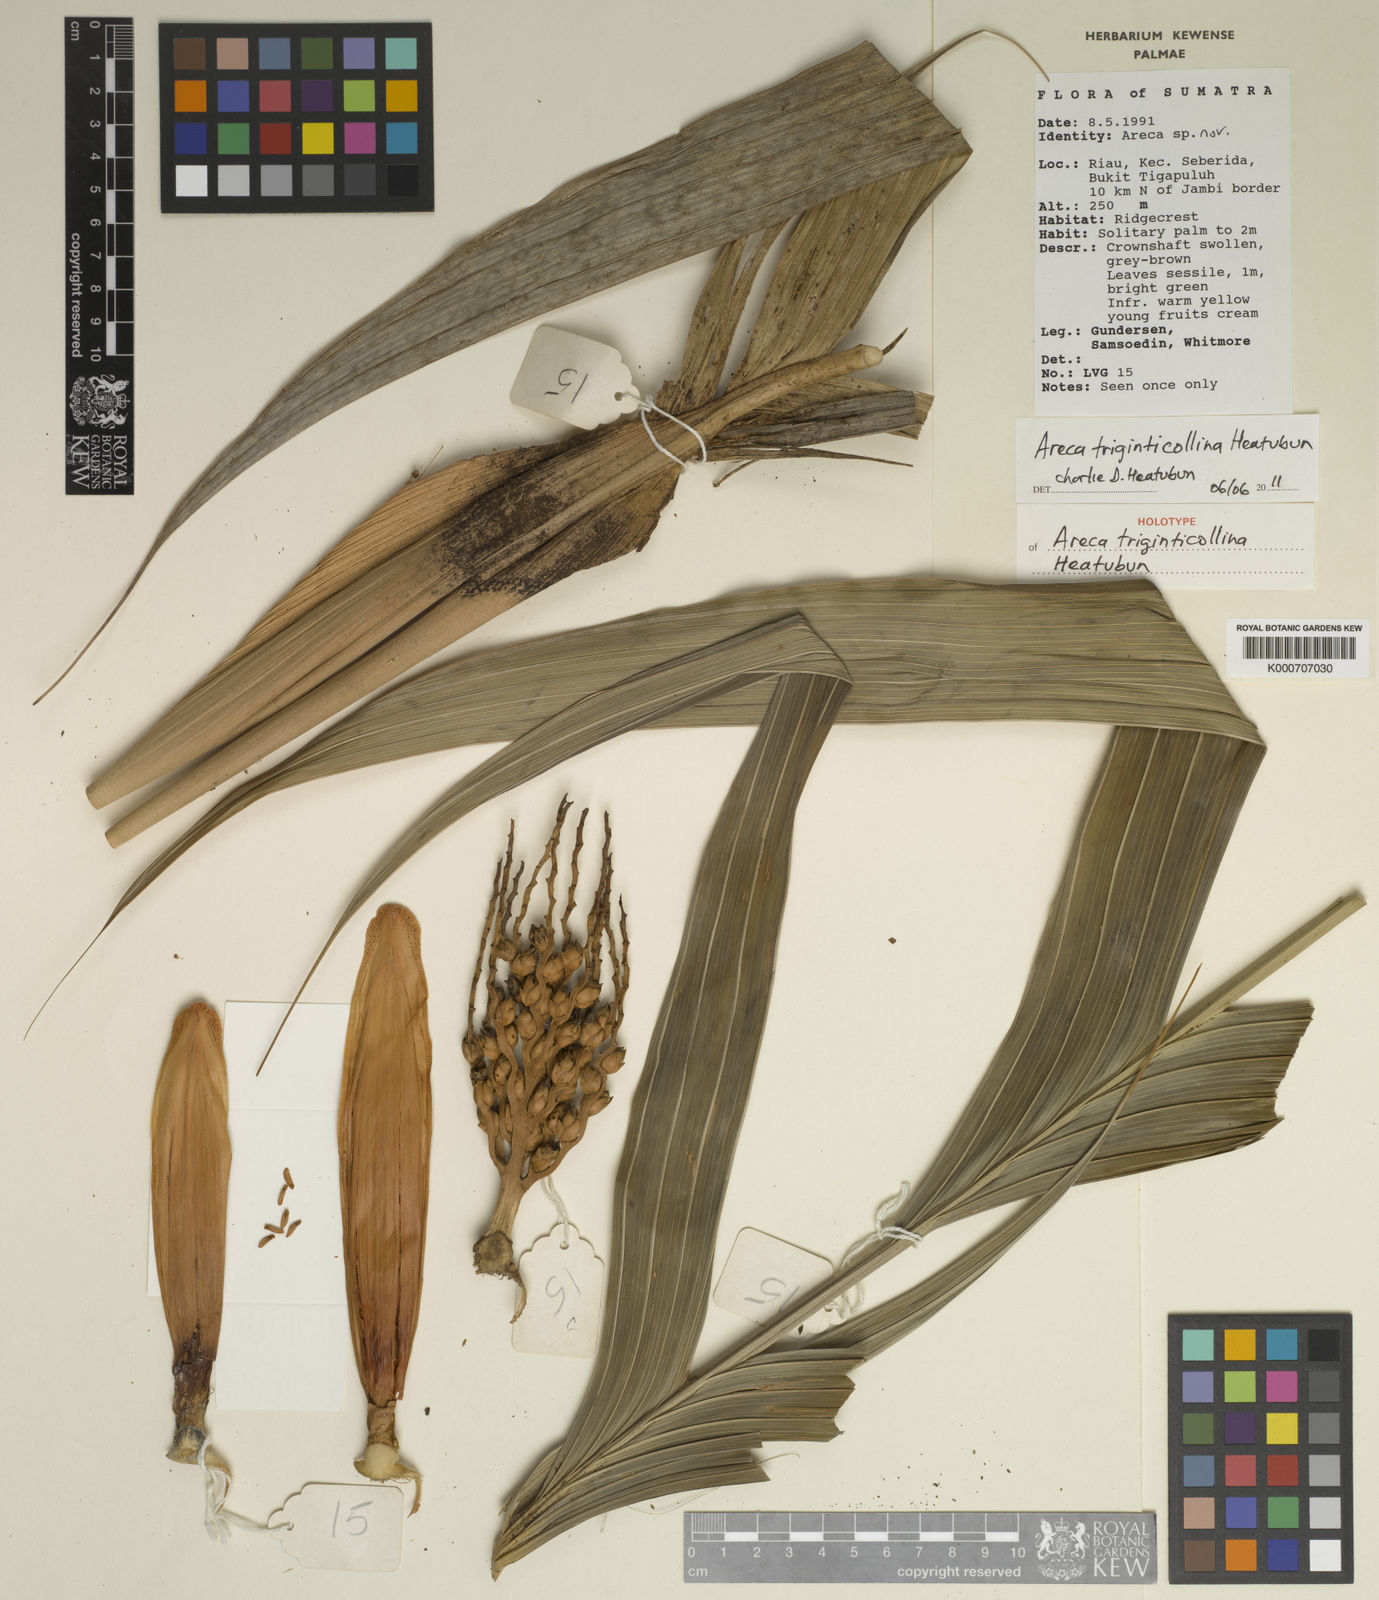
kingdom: Plantae
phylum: Tracheophyta
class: Liliopsida
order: Arecales
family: Arecaceae
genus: Areca
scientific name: Areca triginticollina
